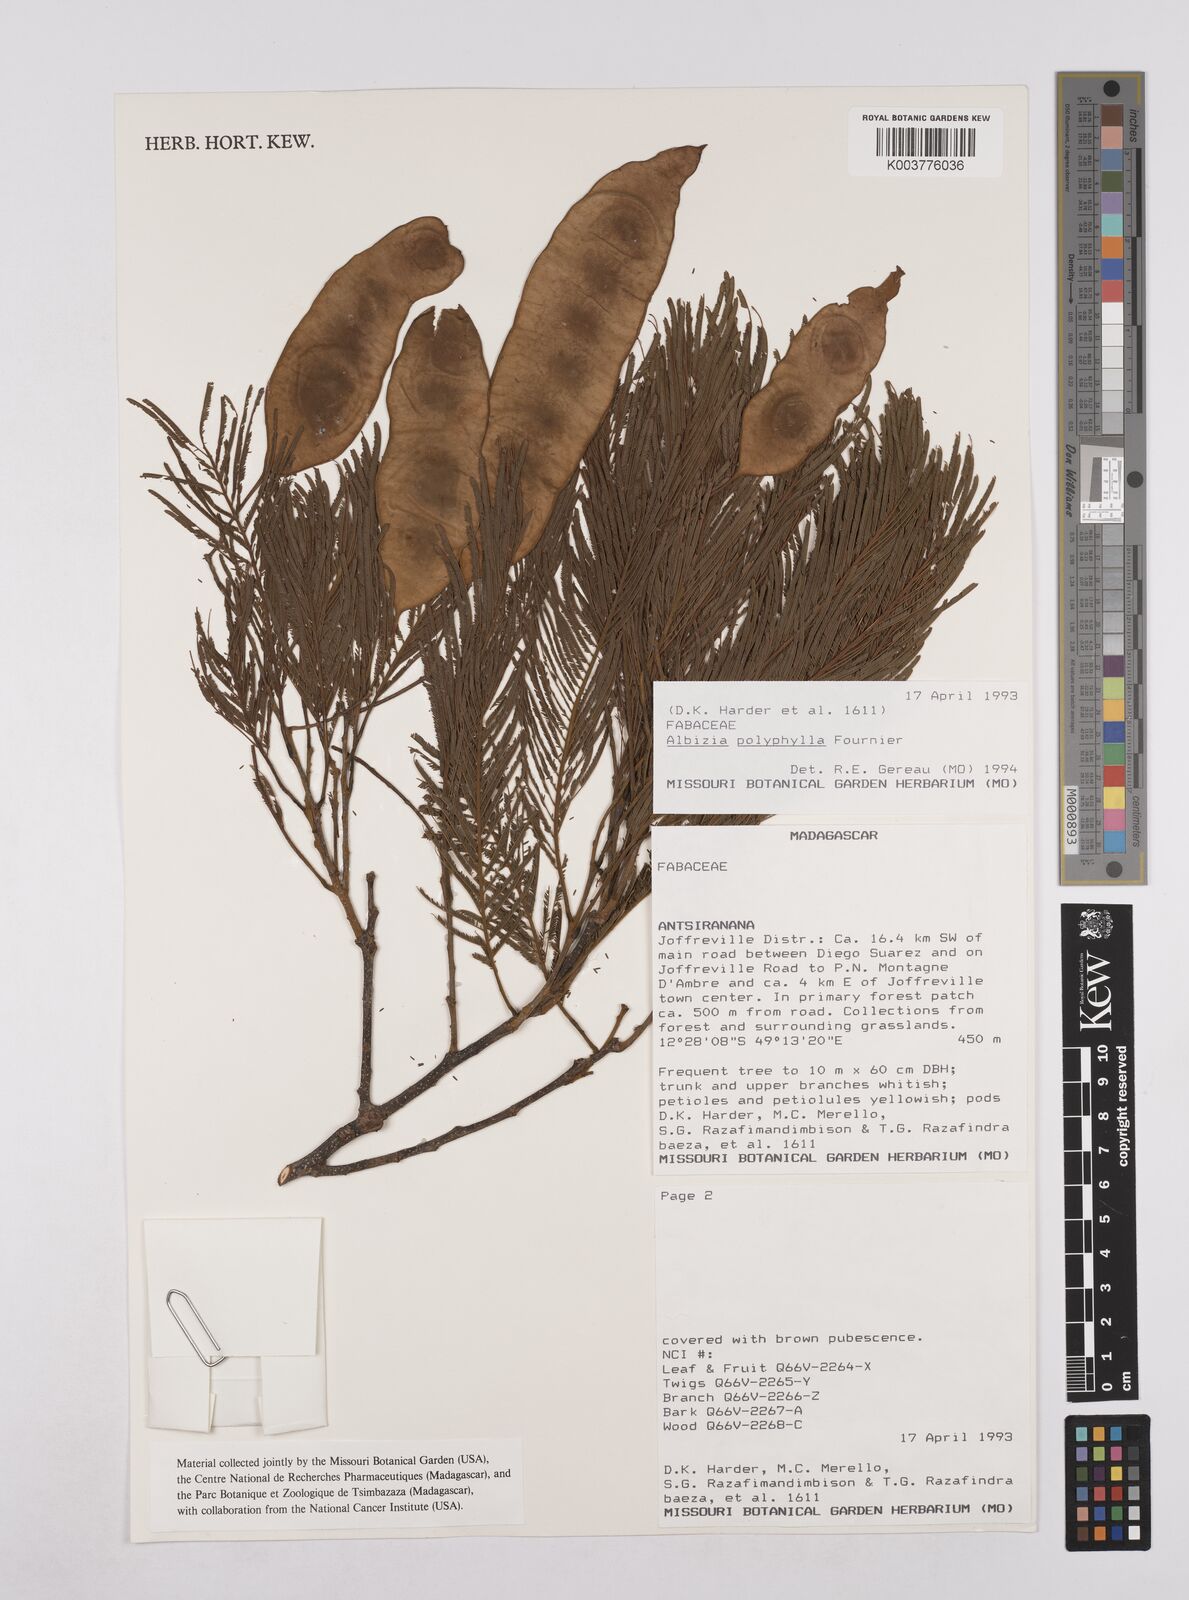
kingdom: Plantae
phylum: Tracheophyta
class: Magnoliopsida
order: Fabales
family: Fabaceae
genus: Albizia
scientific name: Albizia polyphylla
